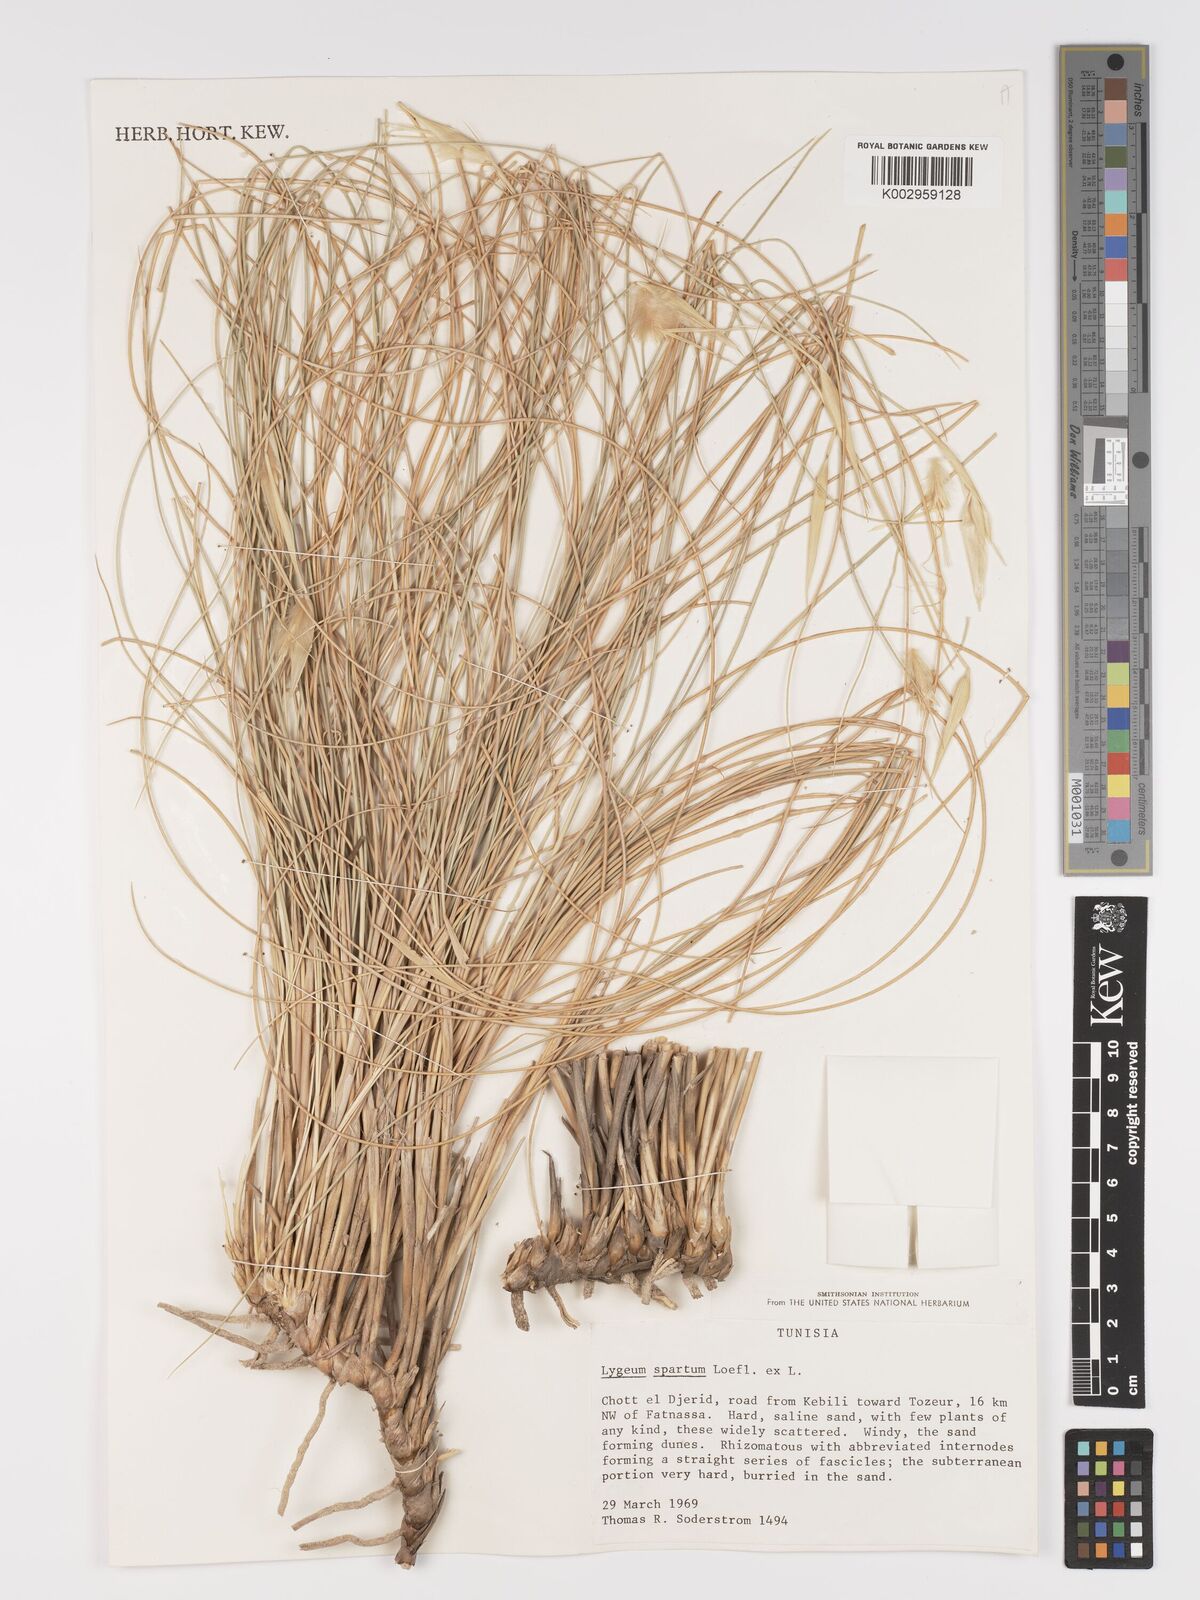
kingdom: Plantae
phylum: Tracheophyta
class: Liliopsida
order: Poales
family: Poaceae
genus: Lygeum
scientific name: Lygeum spartum
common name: Albardine
